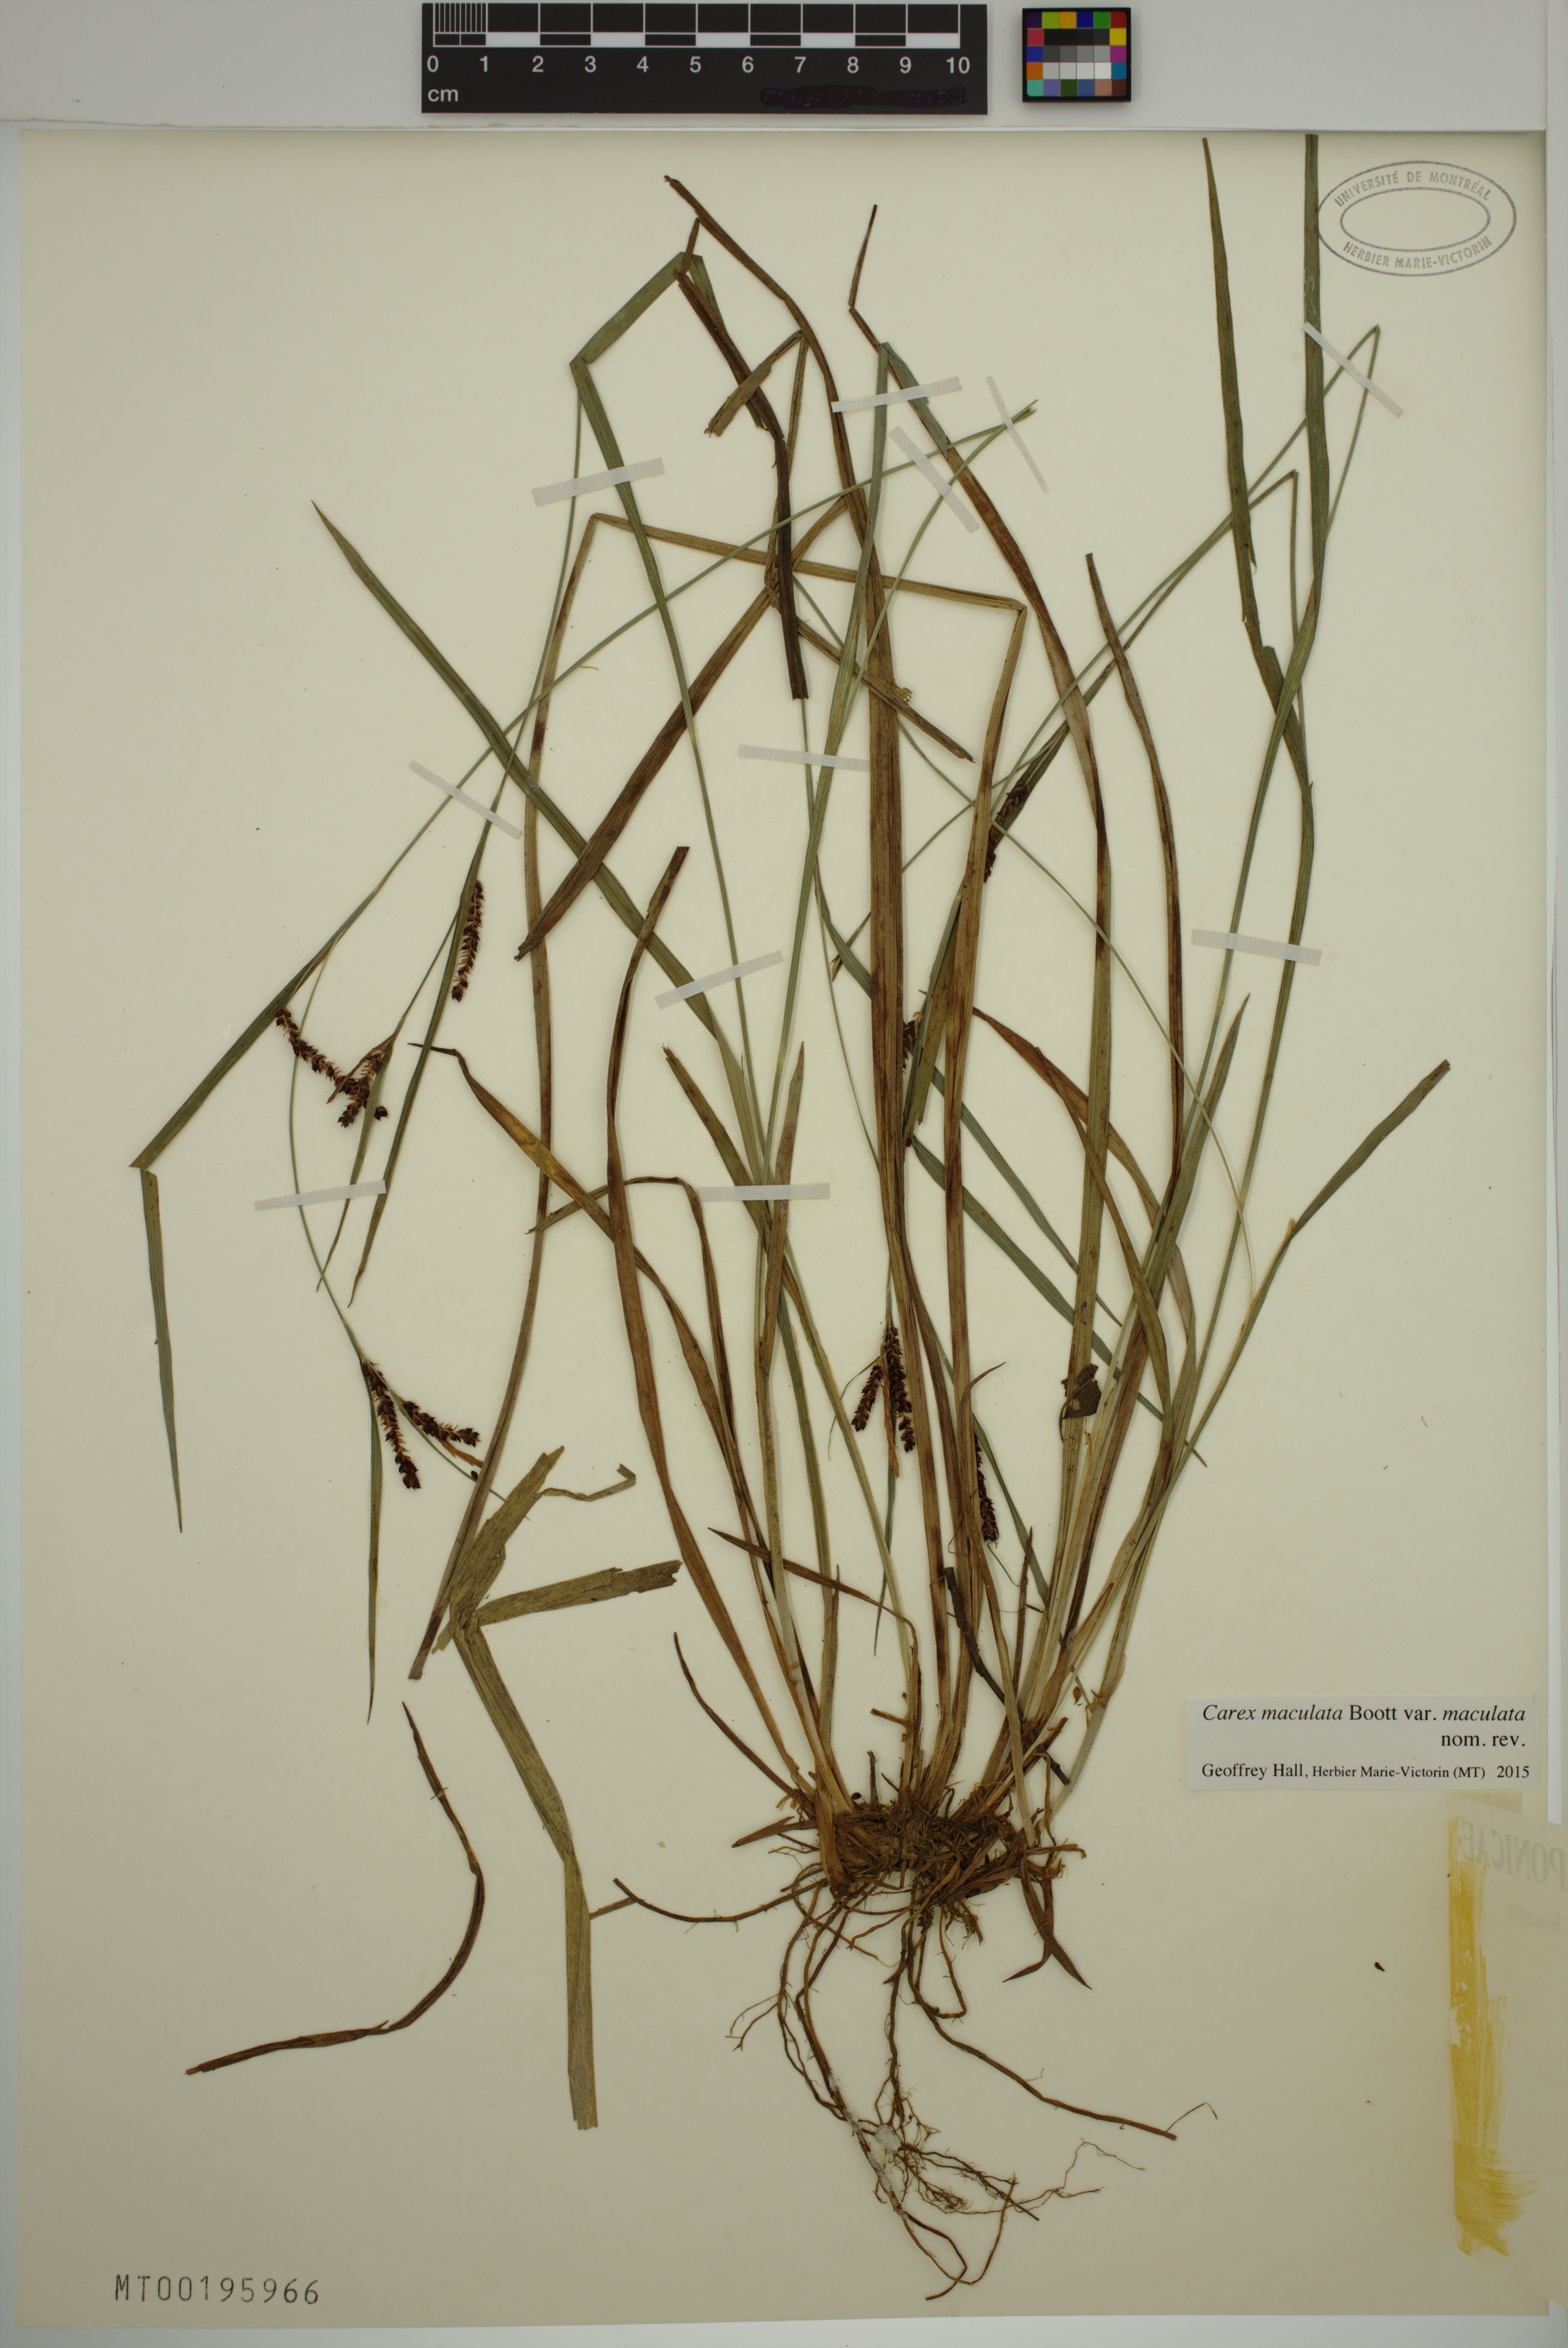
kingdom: Plantae
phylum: Tracheophyta
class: Liliopsida
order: Poales
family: Cyperaceae
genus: Carex
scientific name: Carex maculata
